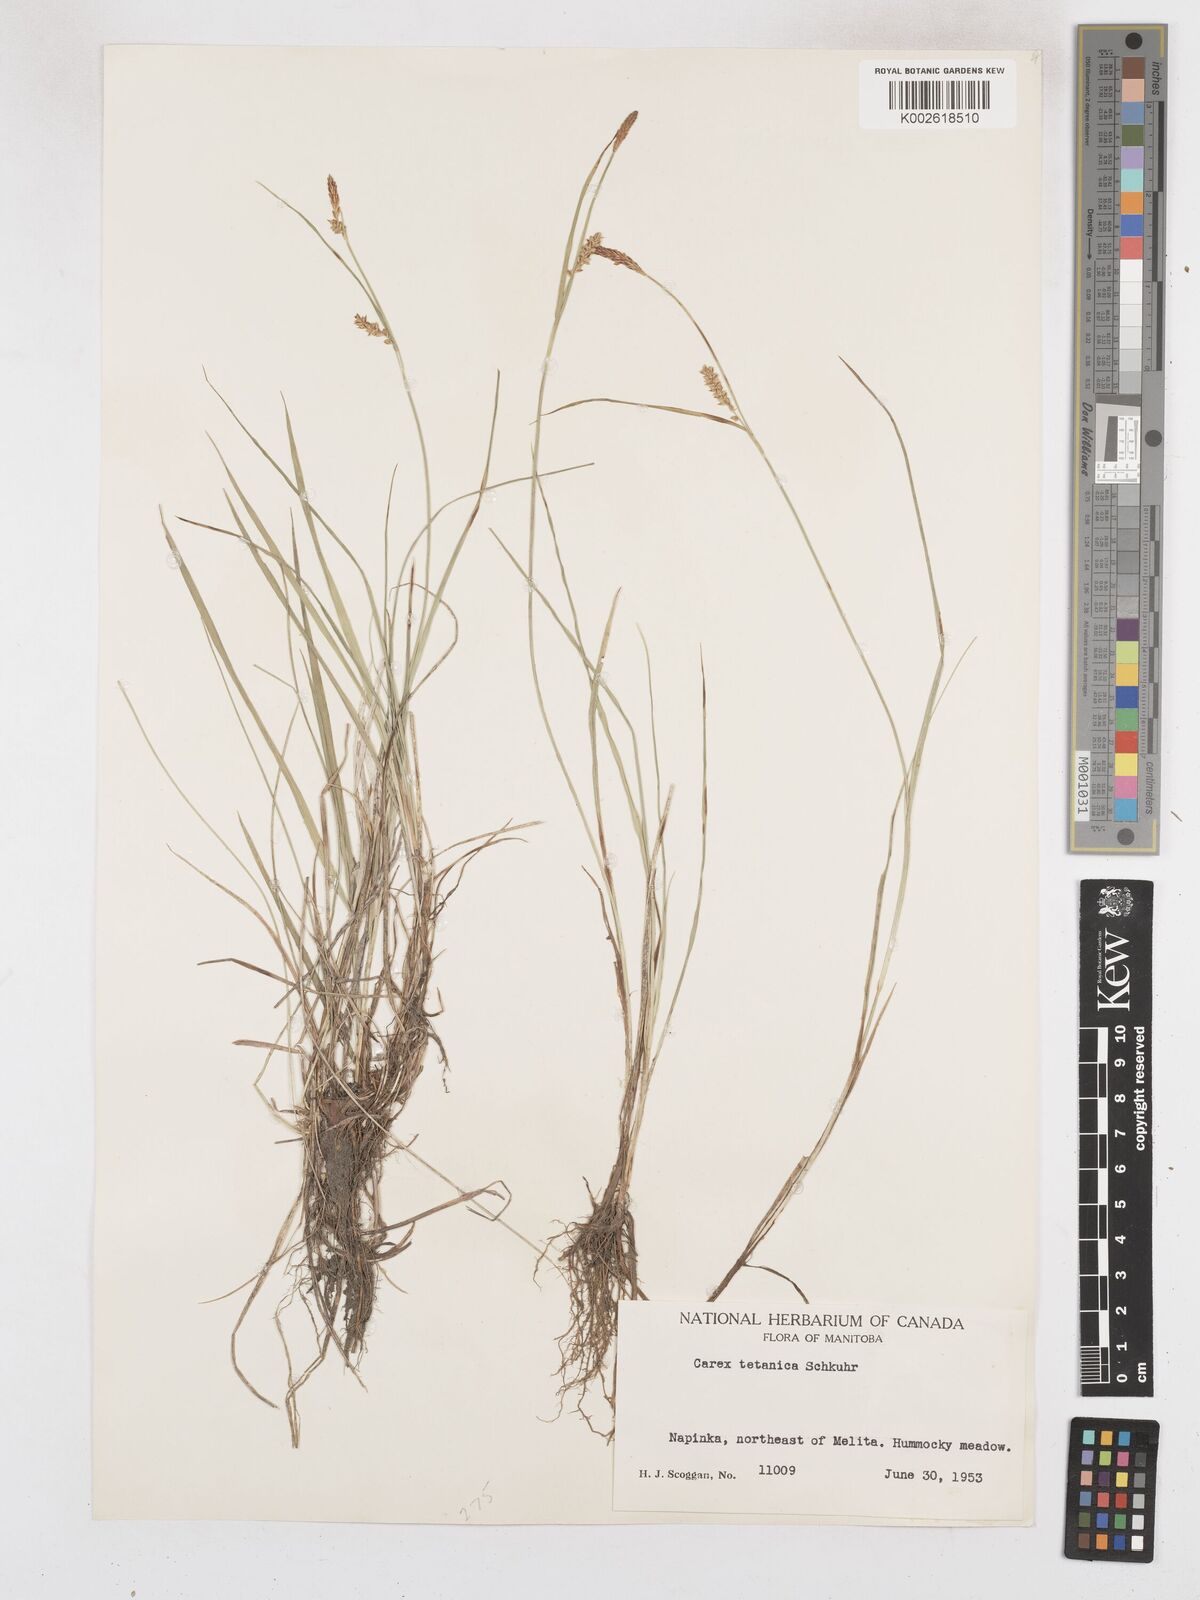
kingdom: Plantae
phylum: Tracheophyta
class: Liliopsida
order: Poales
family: Cyperaceae
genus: Carex
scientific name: Carex tetanica
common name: Rigid sedge
